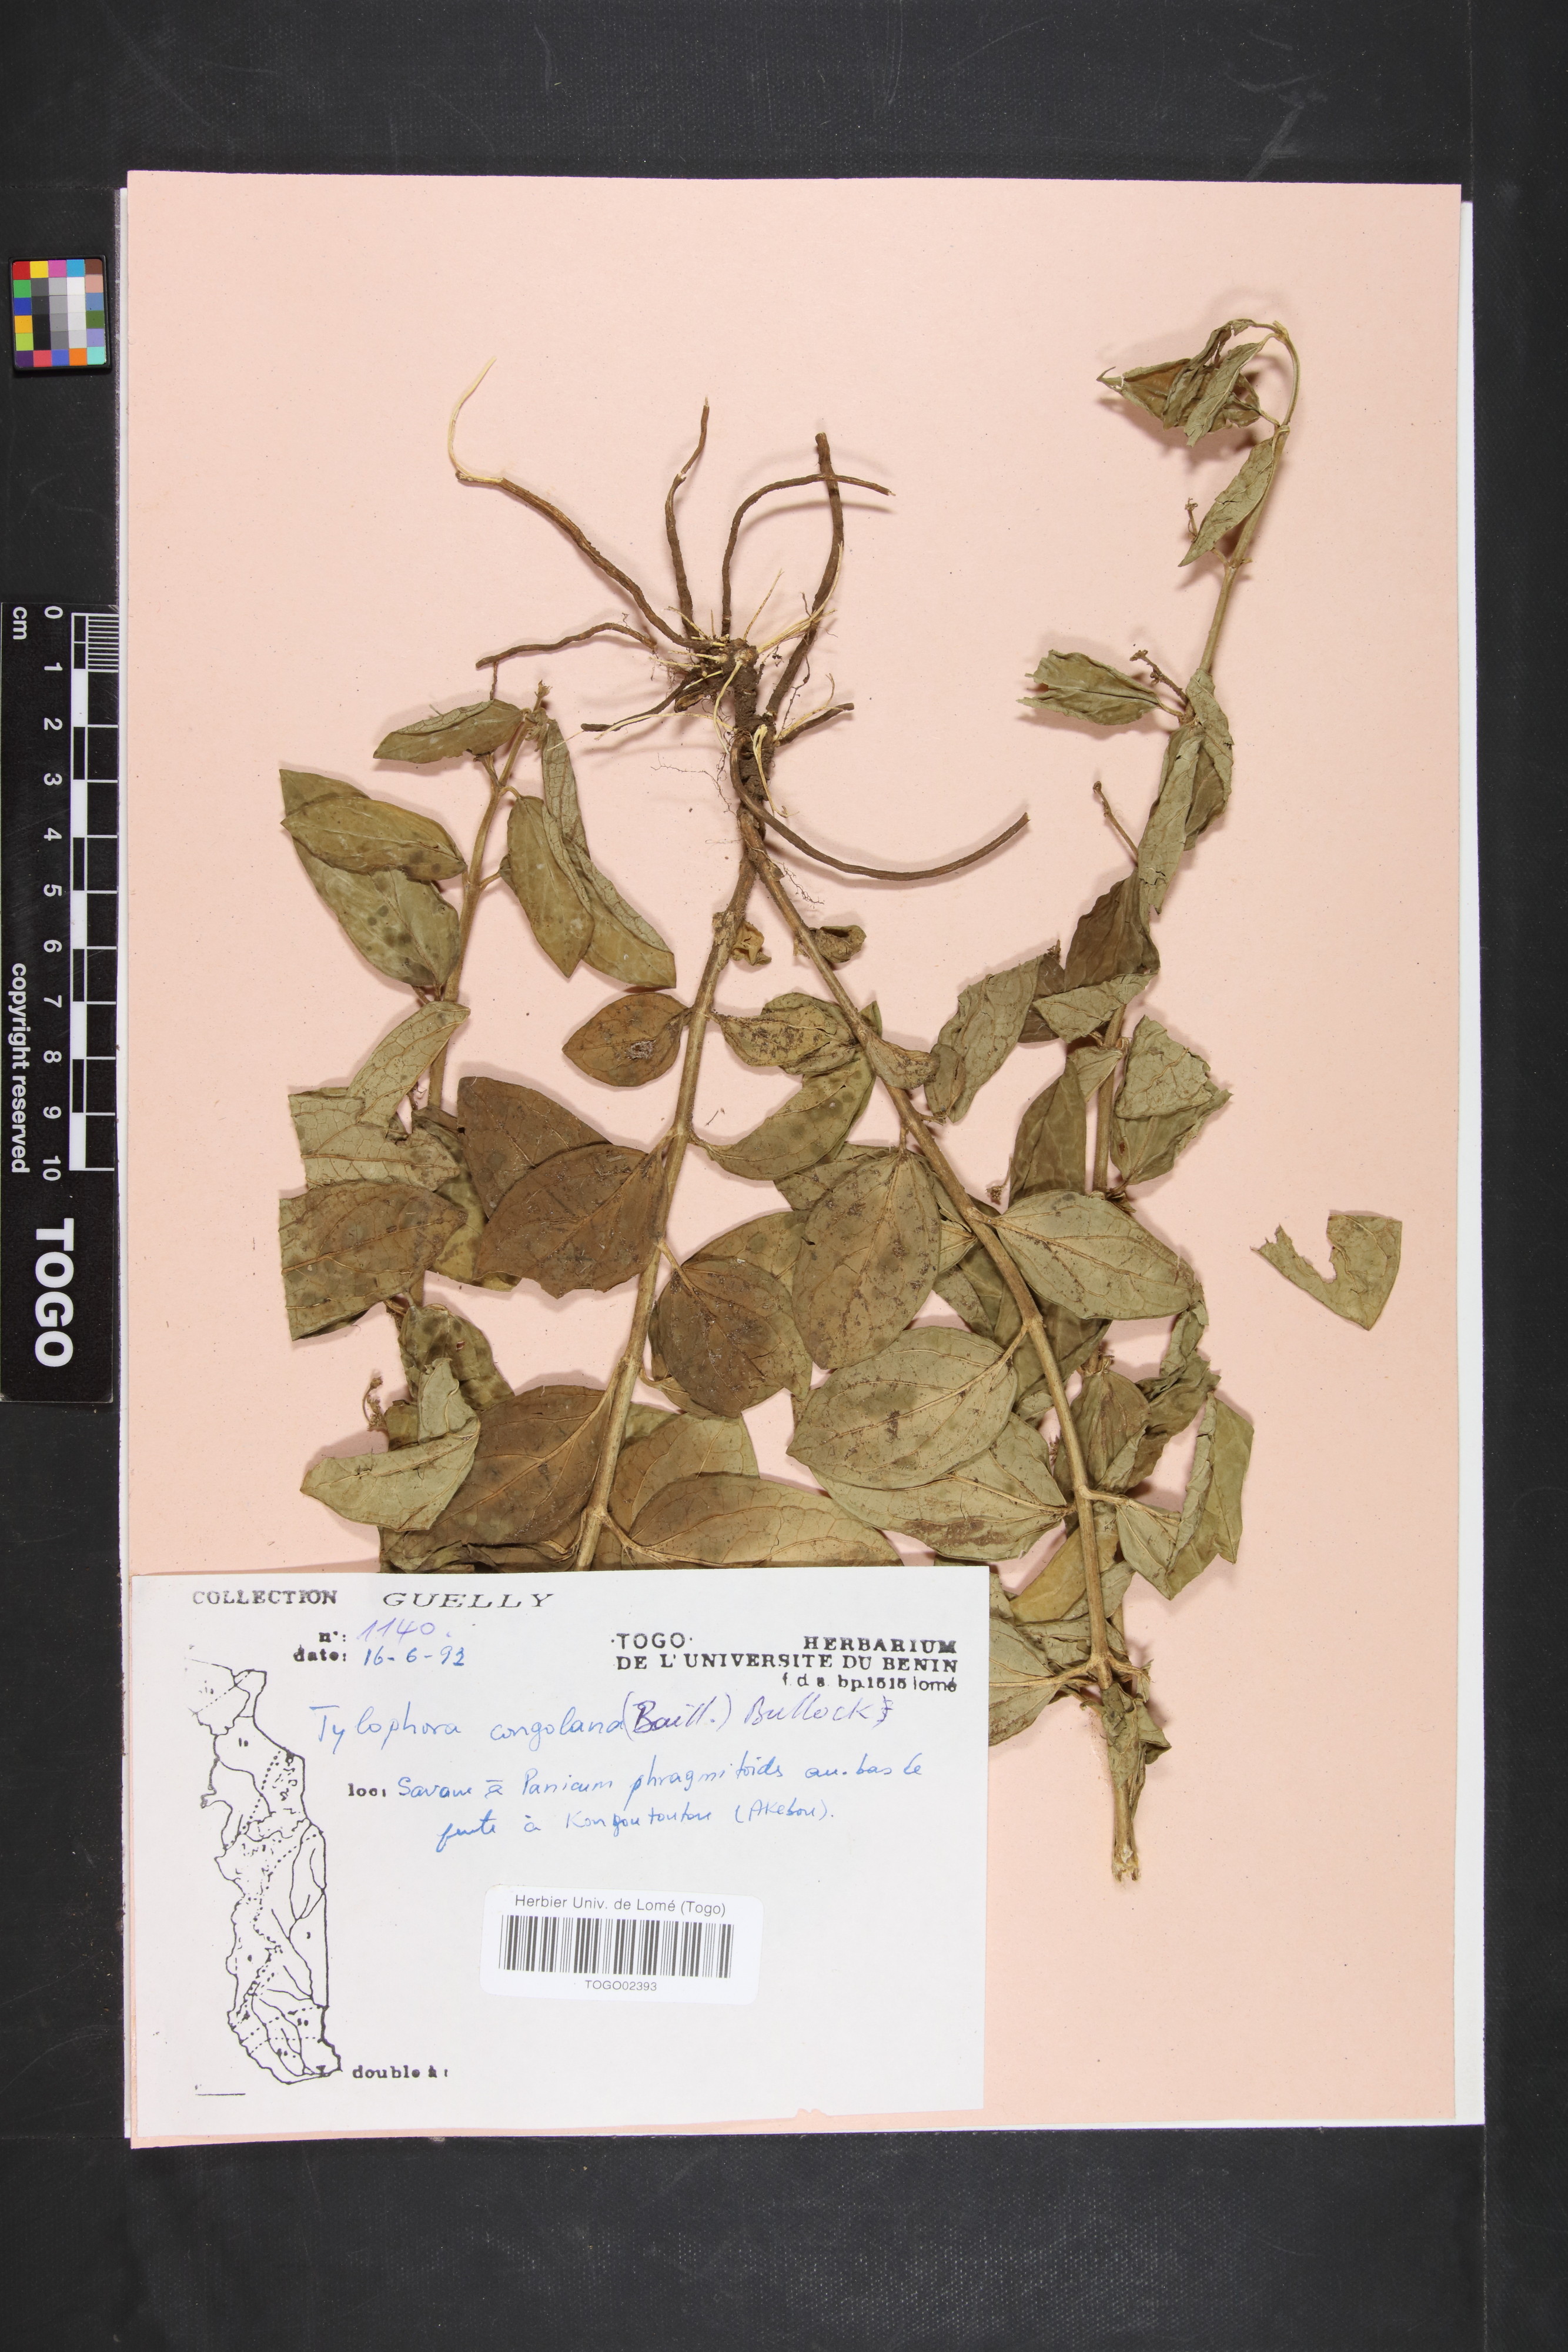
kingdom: Plantae
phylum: Tracheophyta
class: Magnoliopsida
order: Gentianales
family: Apocynaceae
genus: Vincetoxicum
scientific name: Vincetoxicum congolanum
